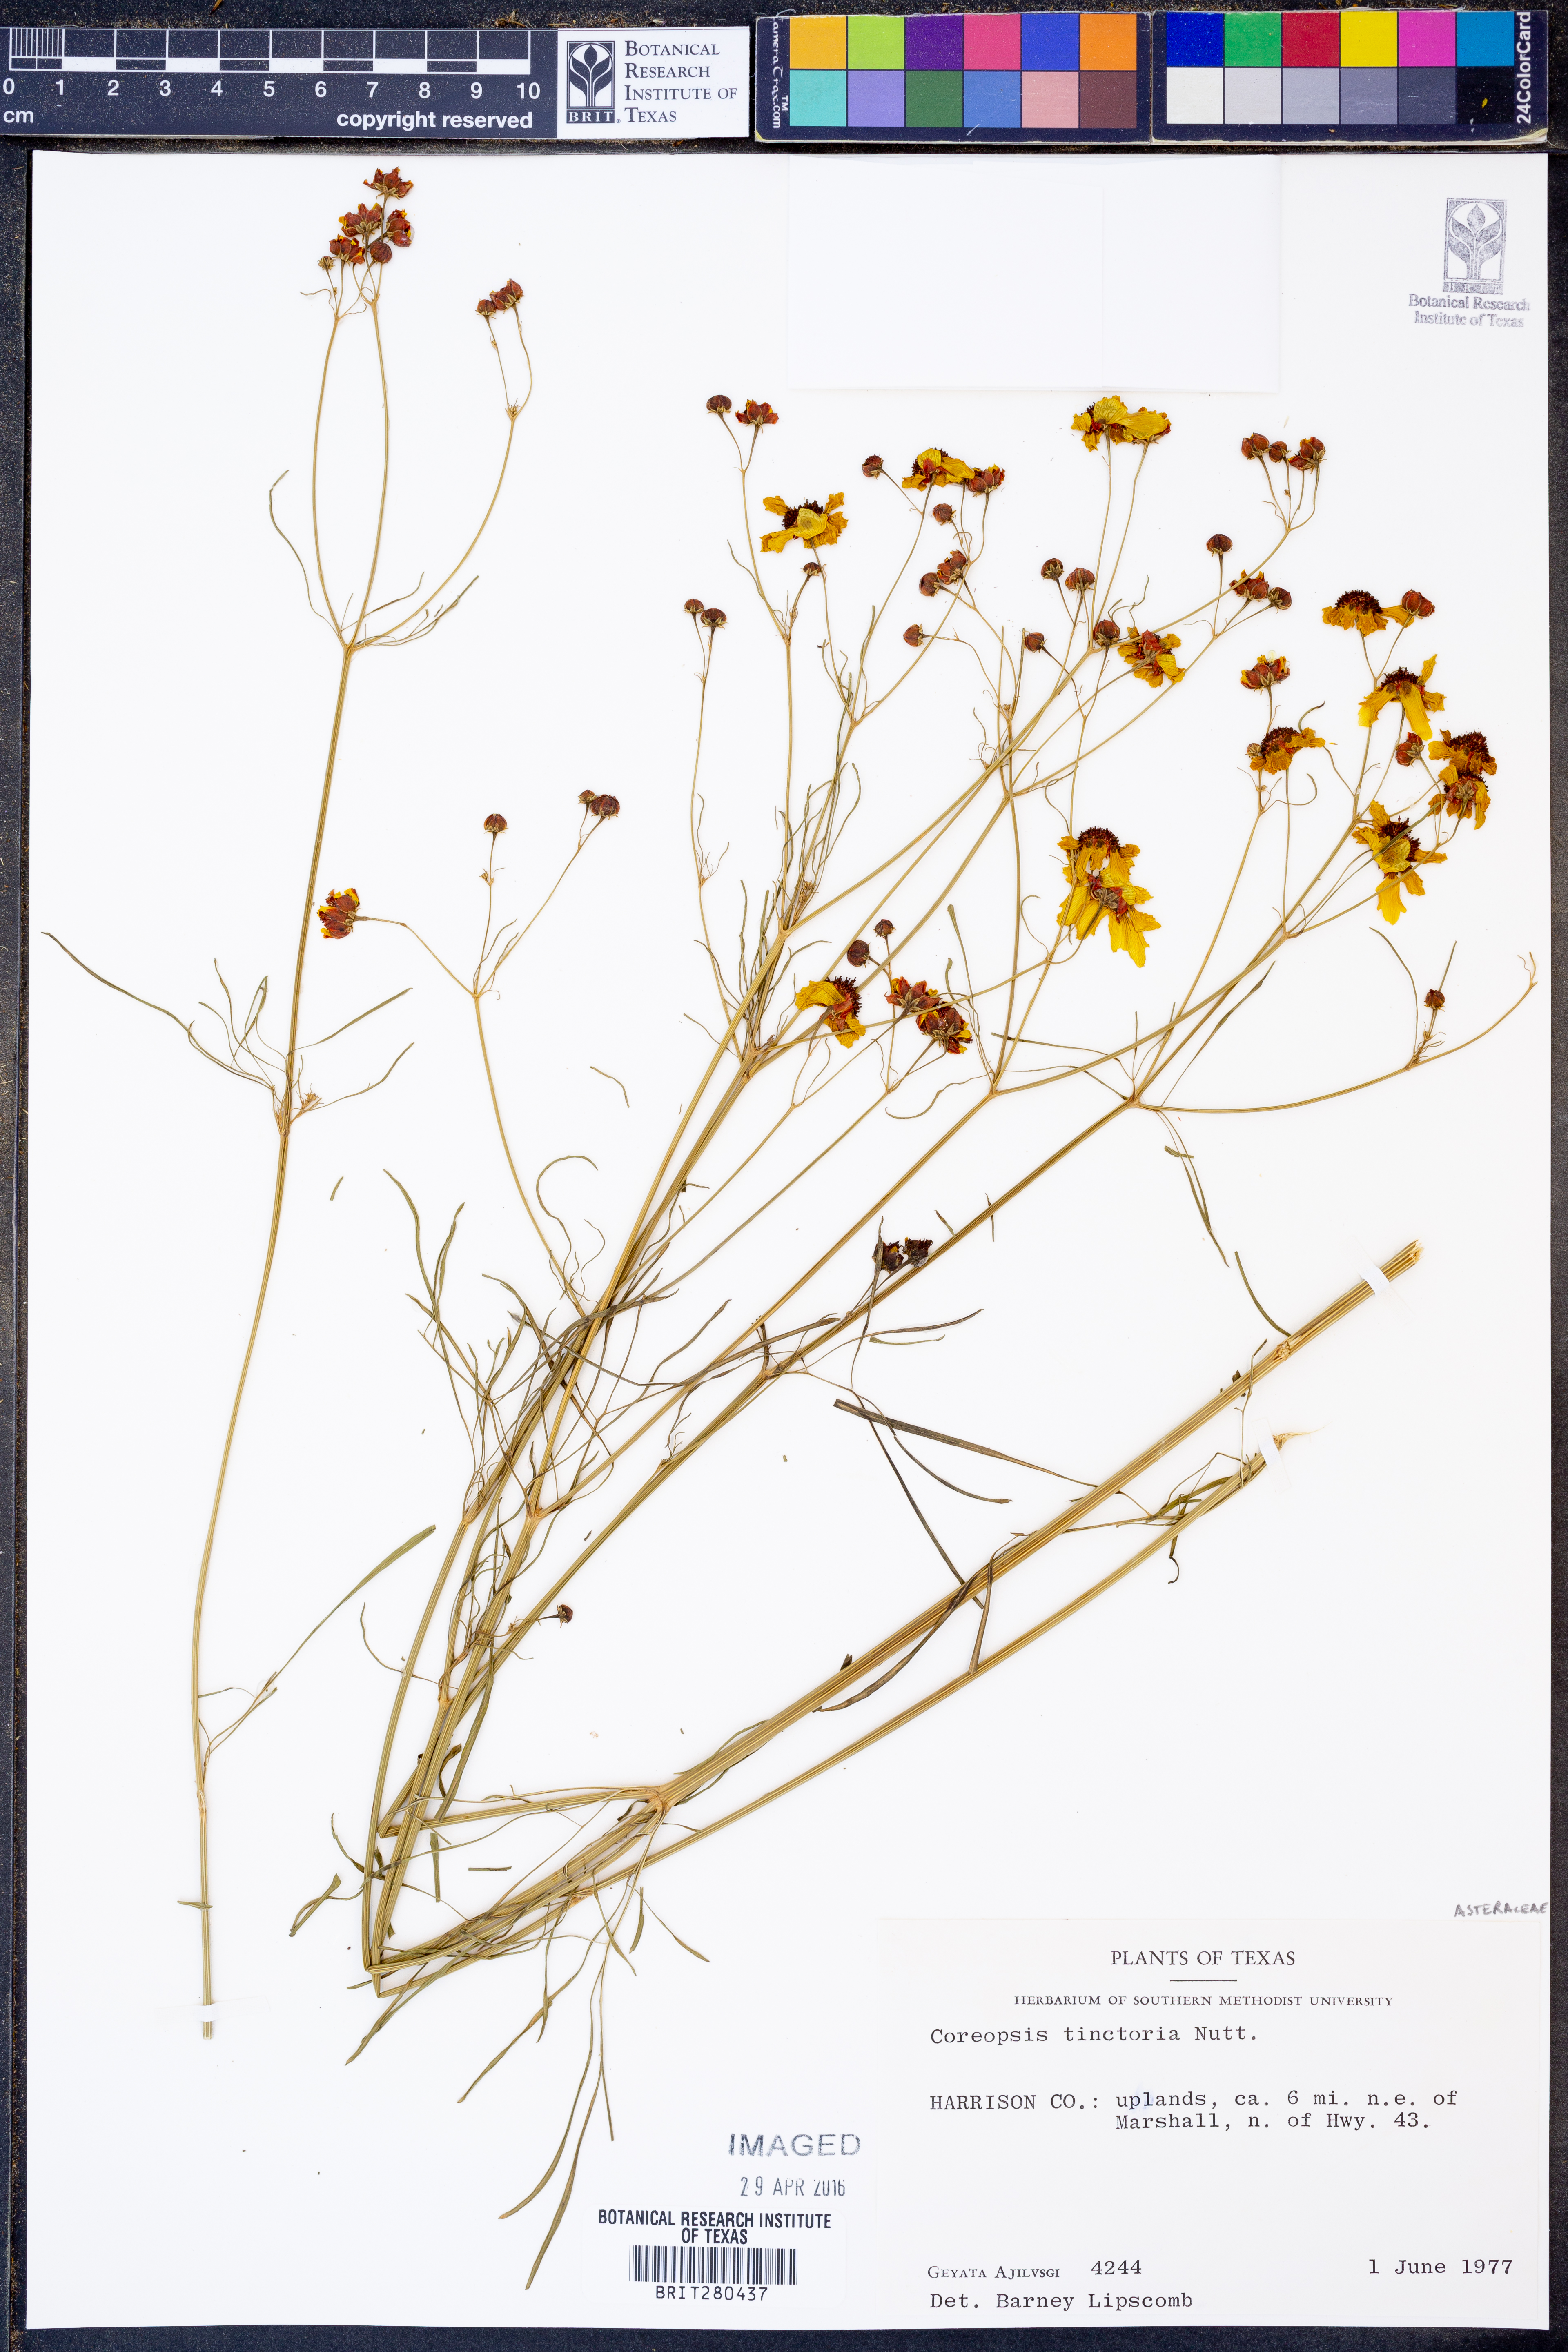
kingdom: Plantae
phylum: Tracheophyta
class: Magnoliopsida
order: Asterales
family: Asteraceae
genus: Coreopsis
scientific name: Coreopsis tinctoria
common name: Garden tickseed
